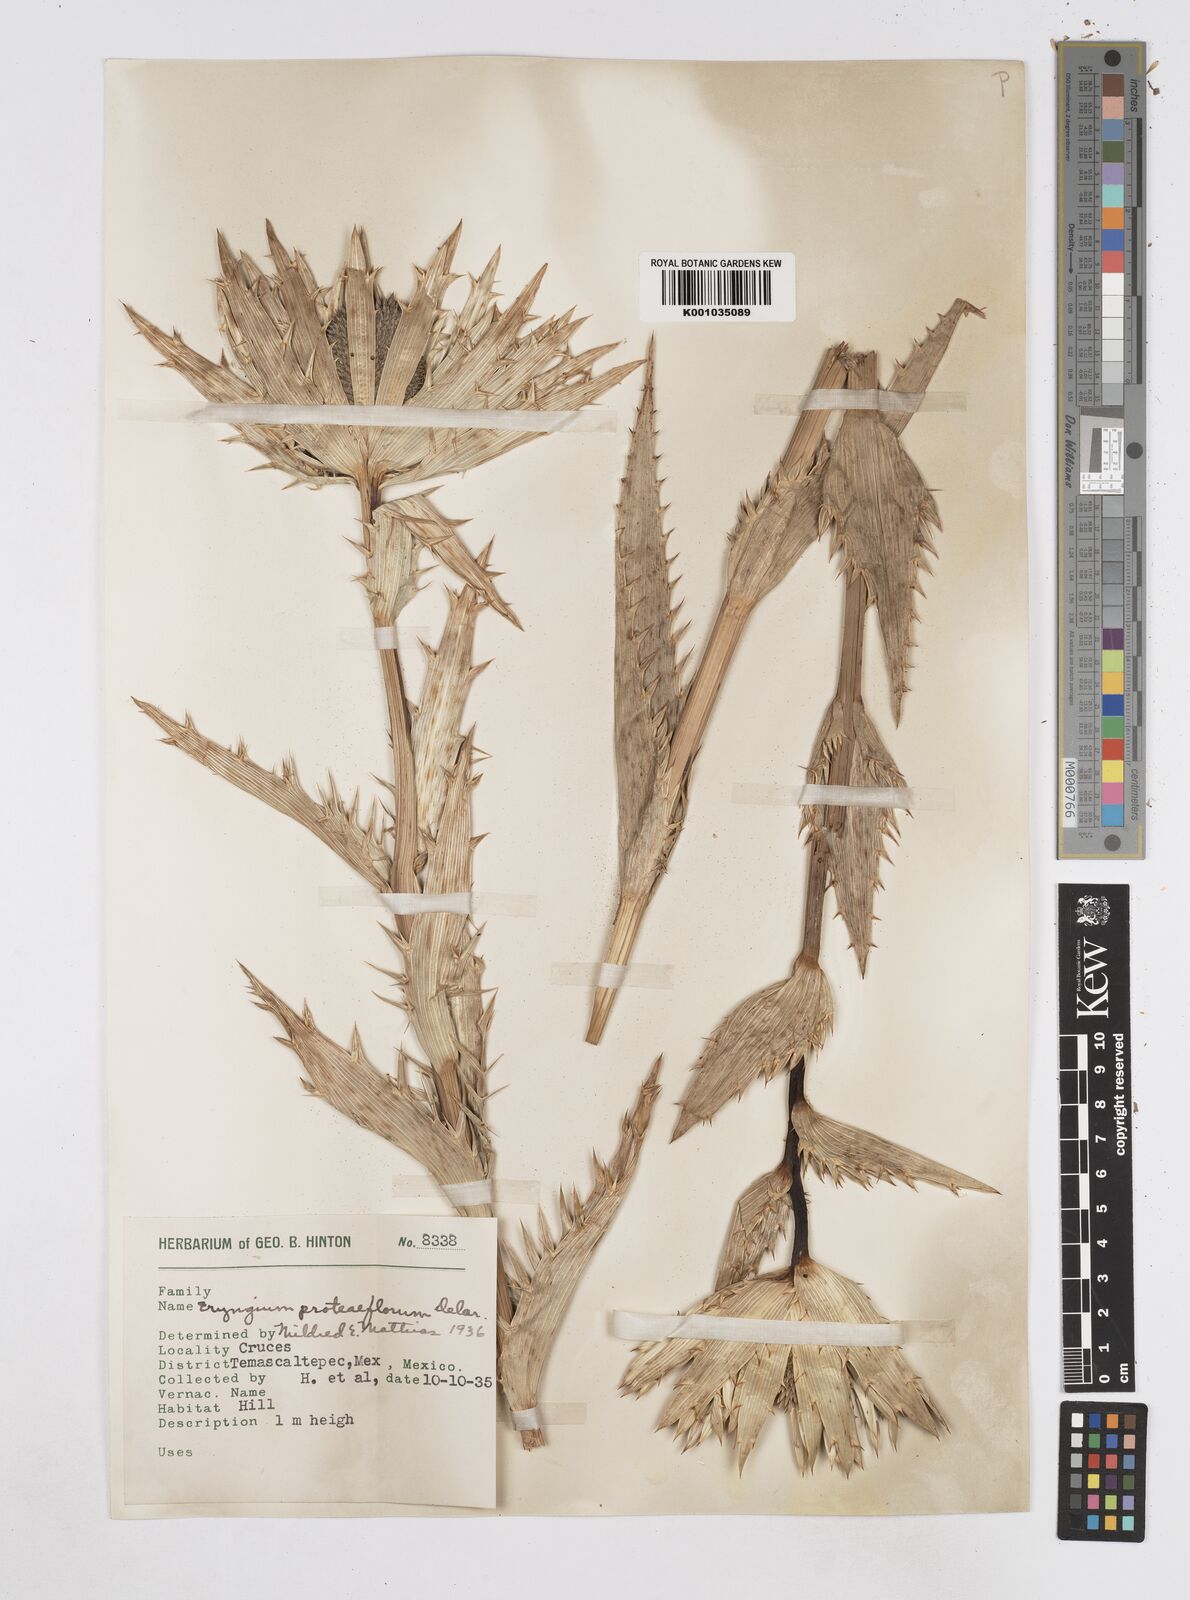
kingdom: Plantae
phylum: Tracheophyta
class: Magnoliopsida
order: Apiales
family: Apiaceae
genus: Eryngium
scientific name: Eryngium proteiflorum
